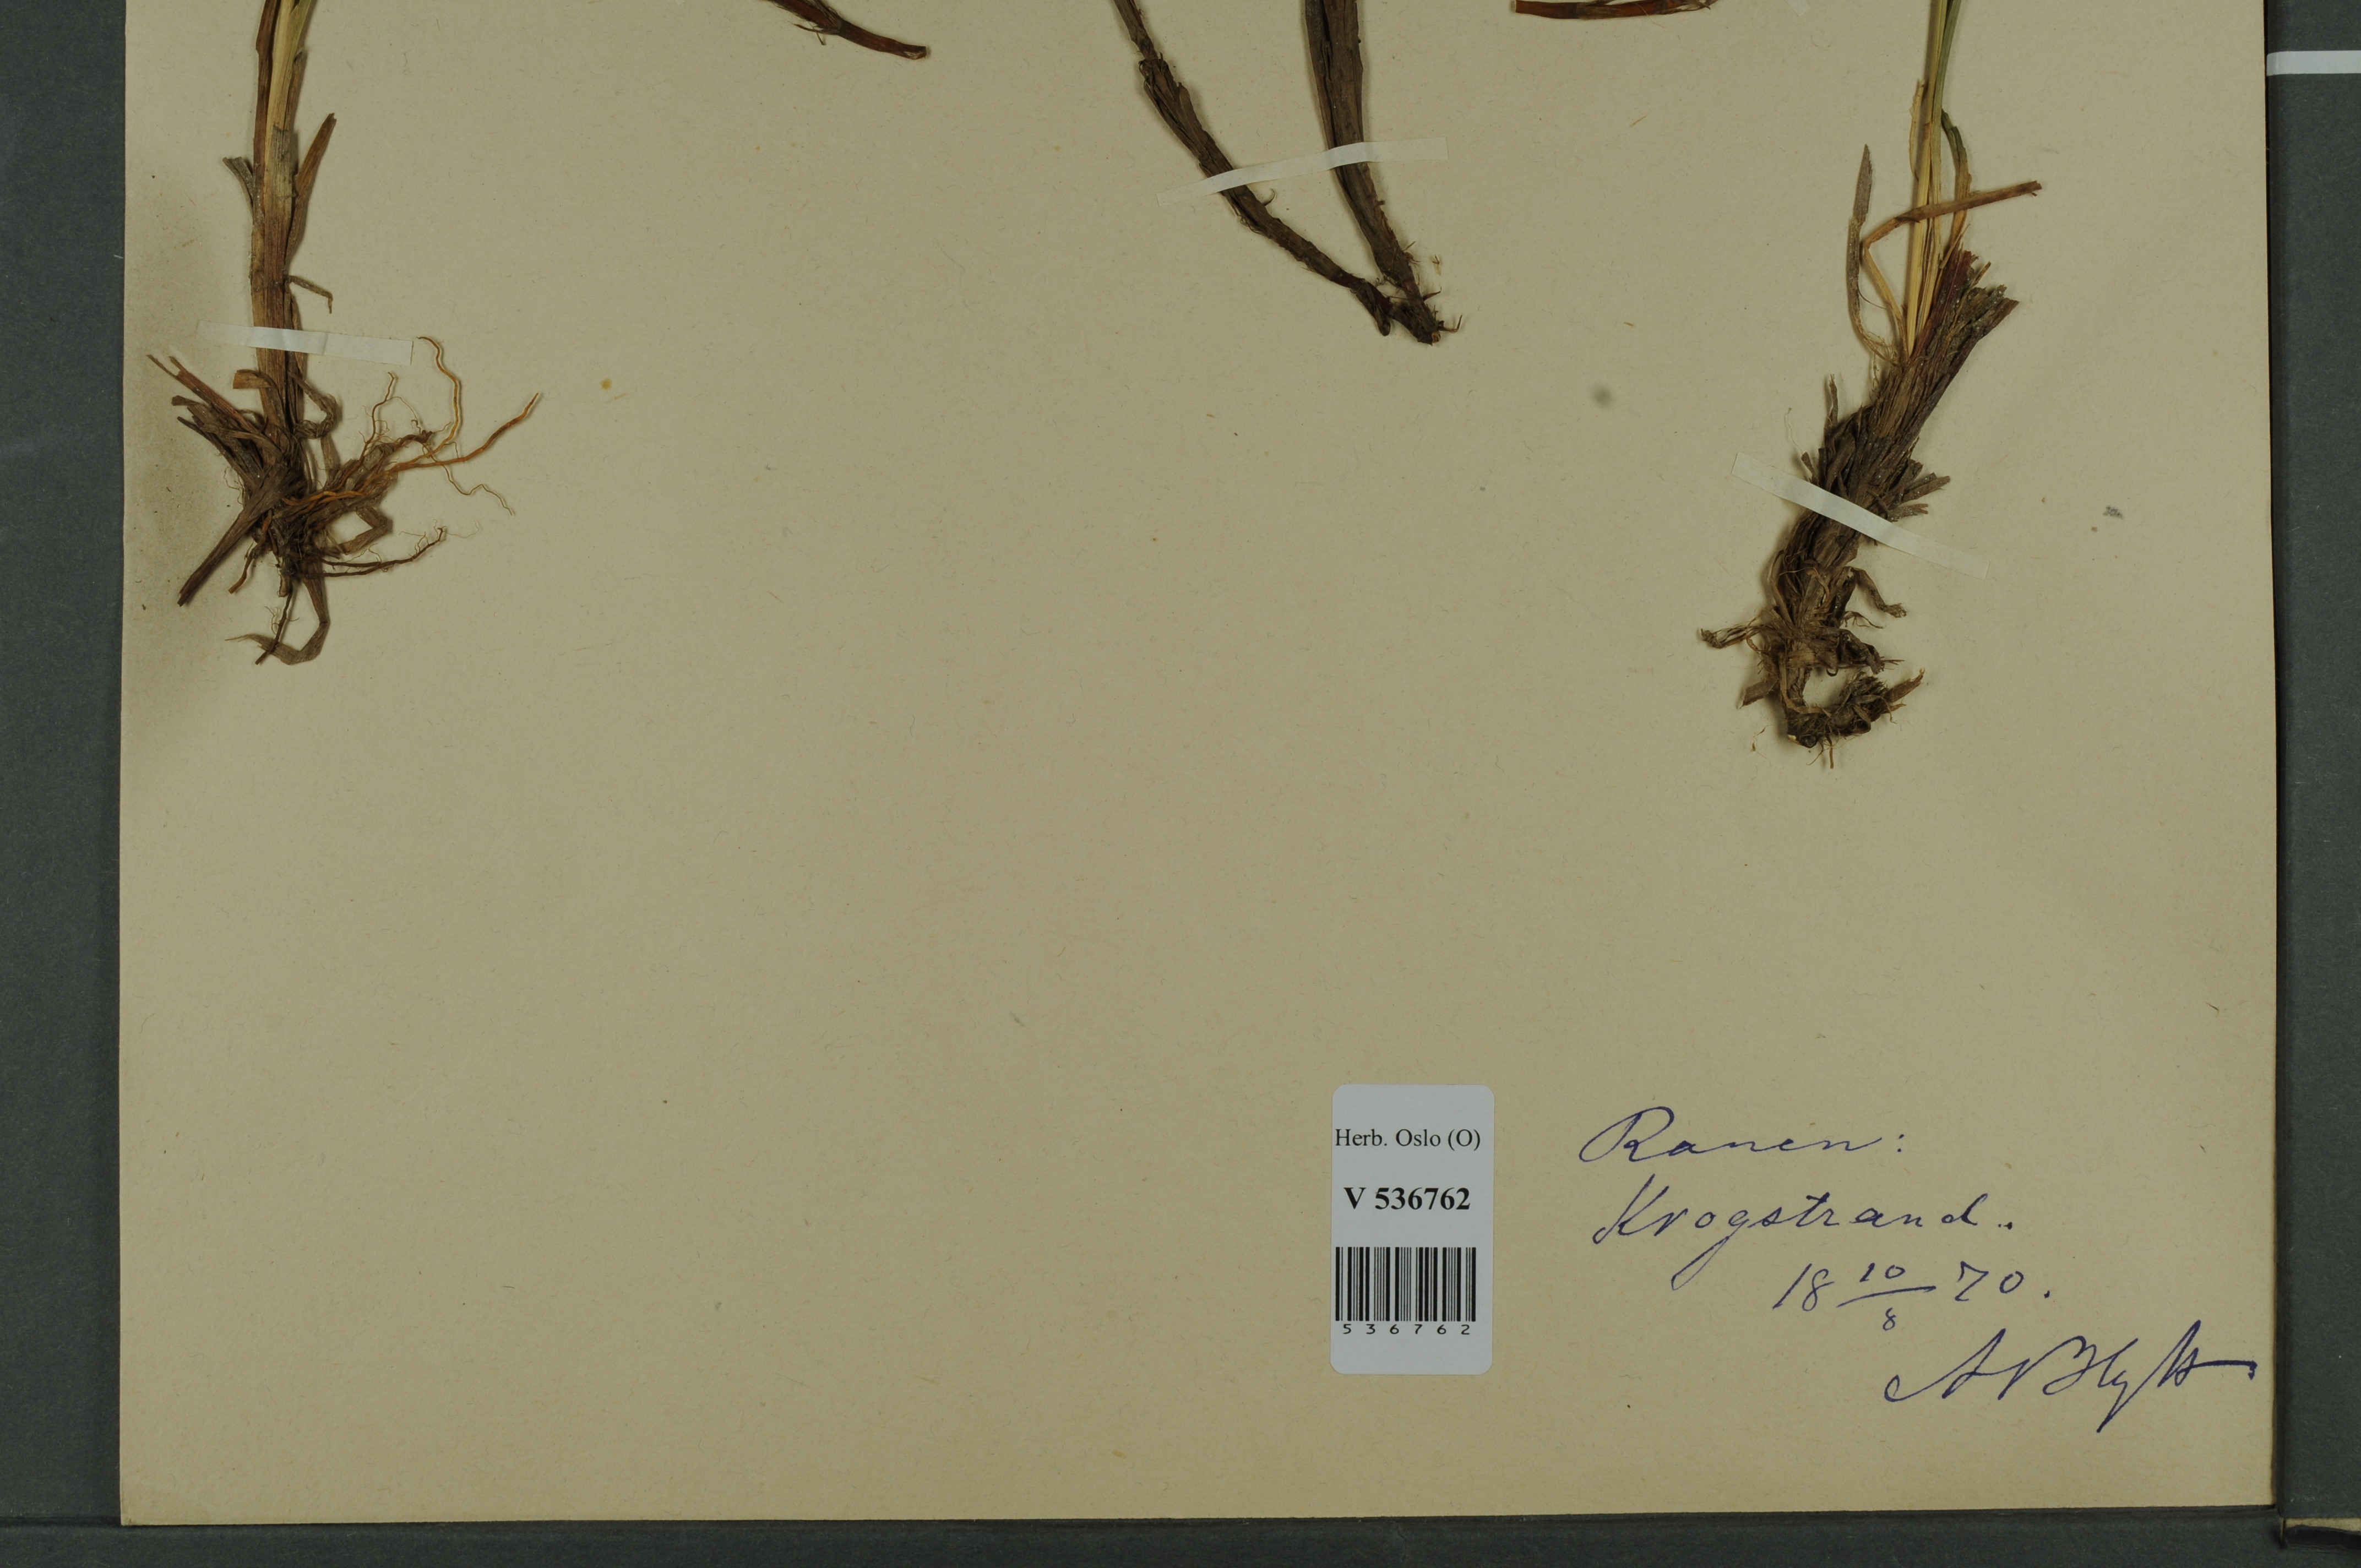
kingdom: Plantae
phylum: Tracheophyta
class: Liliopsida
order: Poales
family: Cyperaceae
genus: Carex
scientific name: Carex dacica
